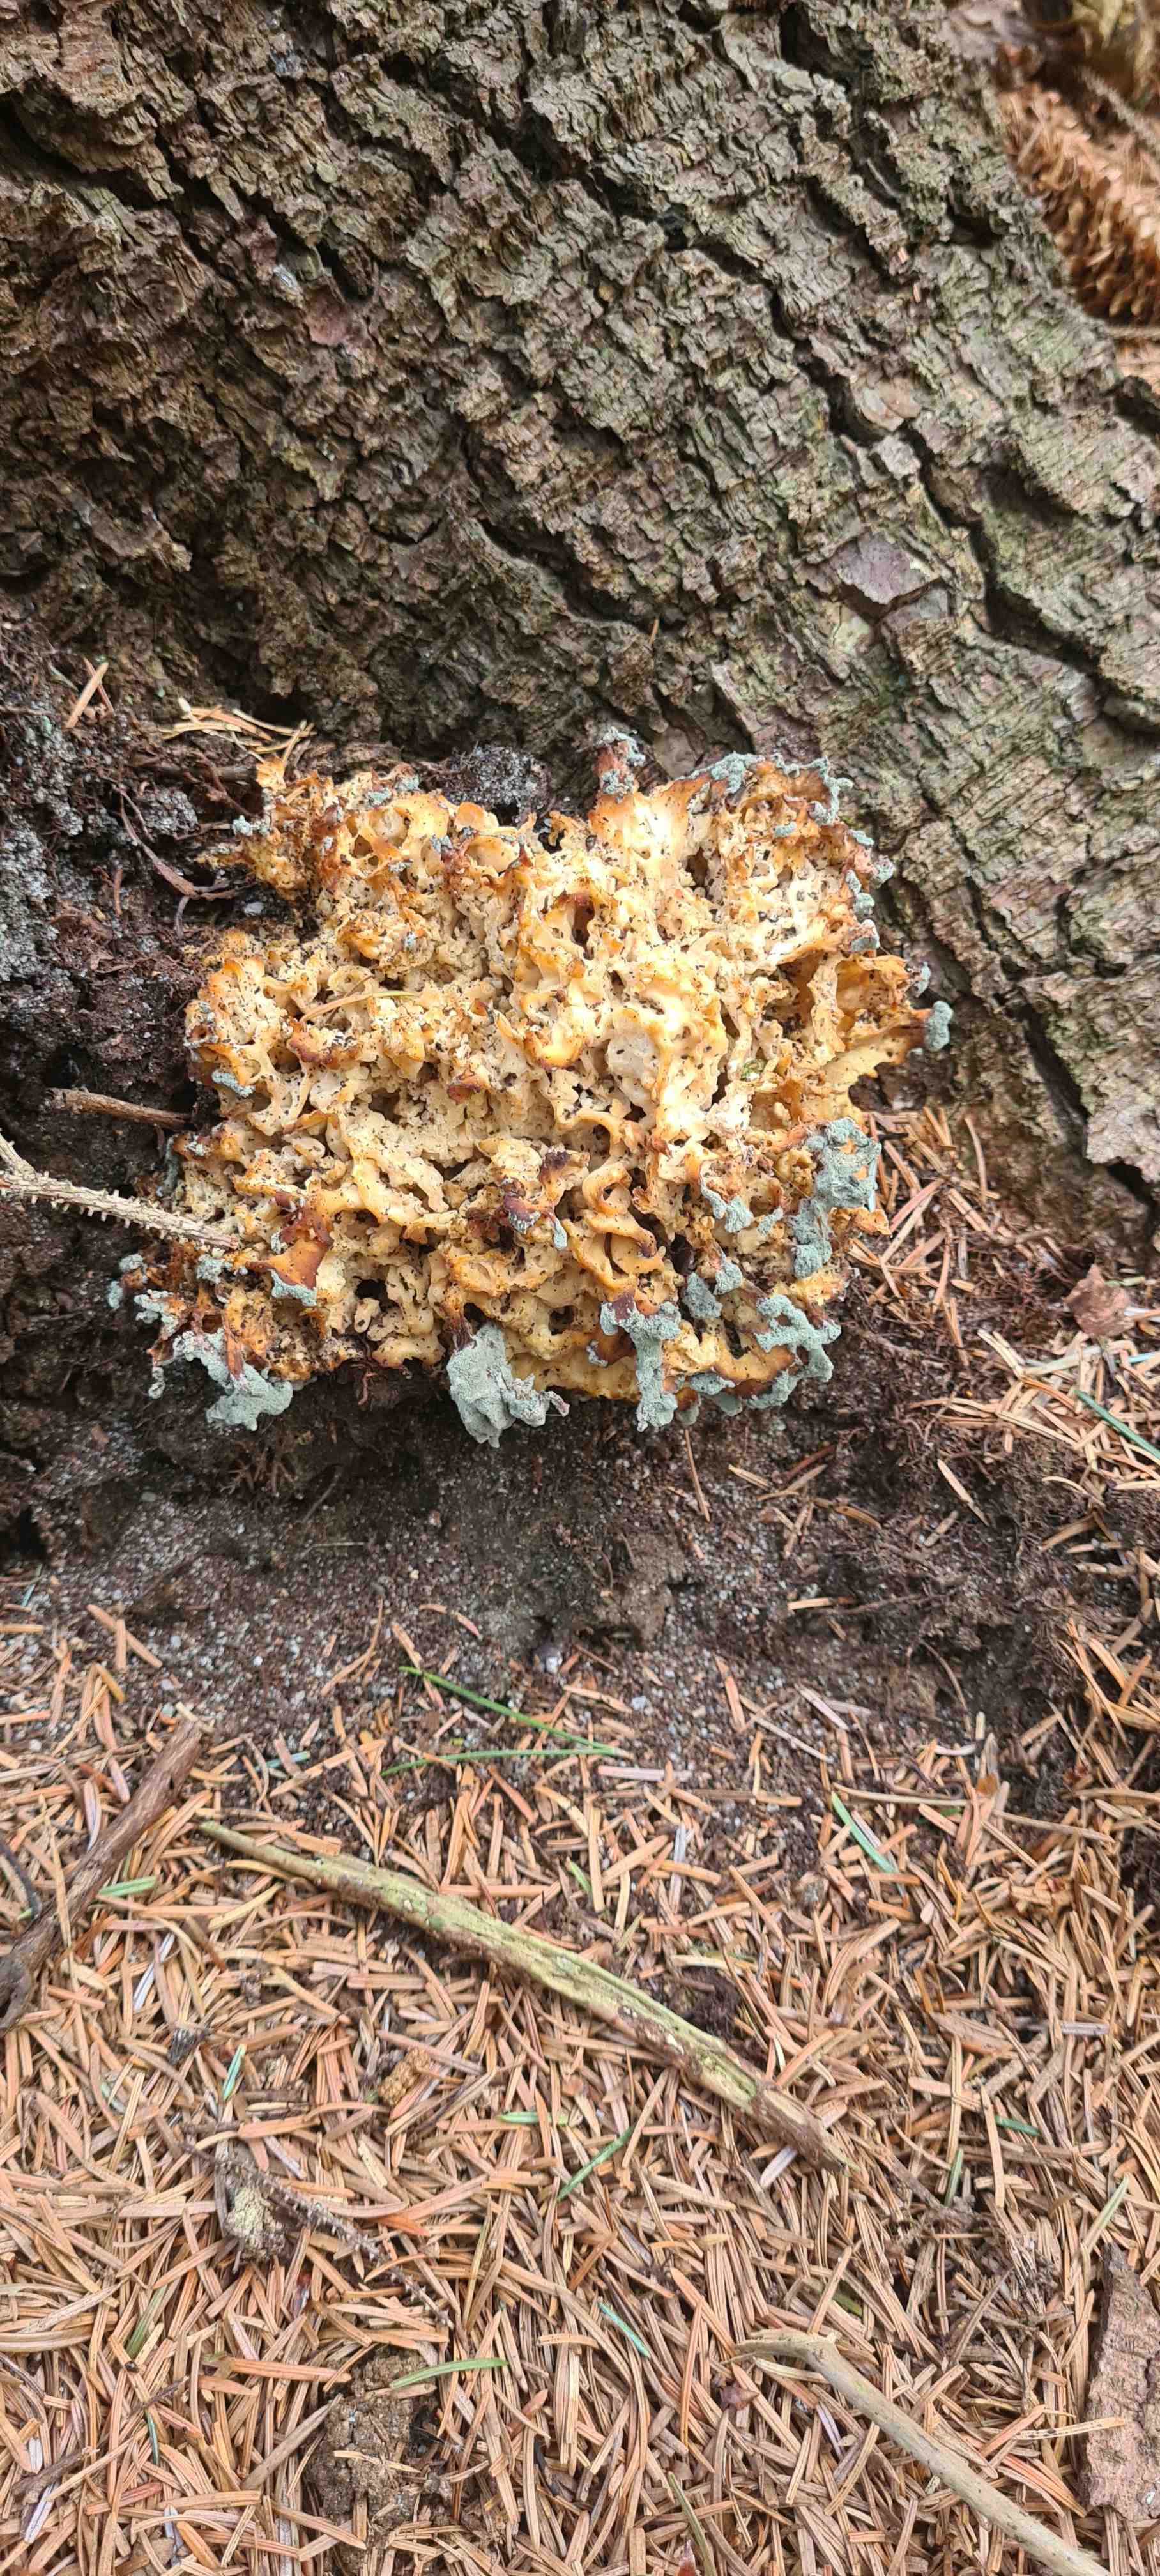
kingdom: Fungi
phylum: Basidiomycota
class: Agaricomycetes
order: Polyporales
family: Sparassidaceae
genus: Sparassis
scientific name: Sparassis crispa
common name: kruset blomkålssvamp
